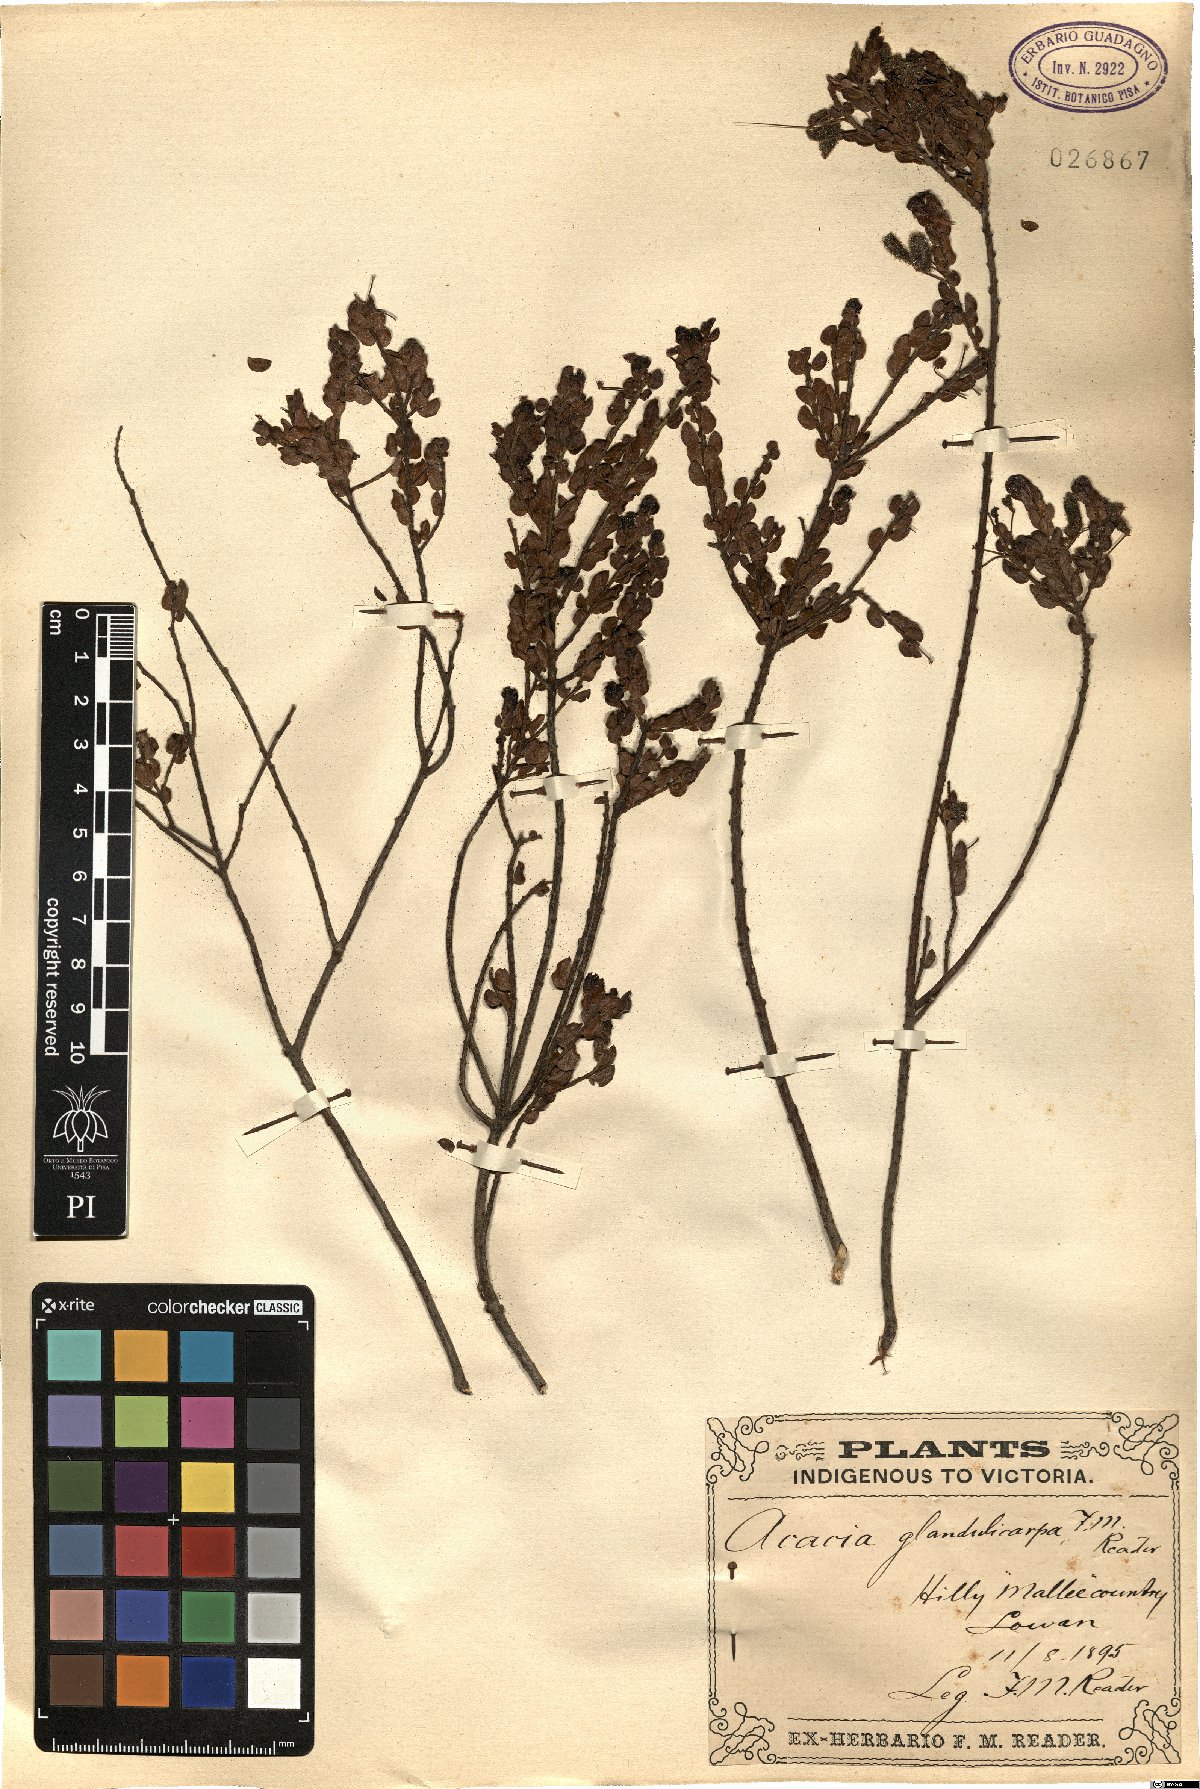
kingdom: Plantae
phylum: Tracheophyta
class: Magnoliopsida
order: Fabales
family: Fabaceae
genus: Acacia
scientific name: Acacia glandulicarpa
